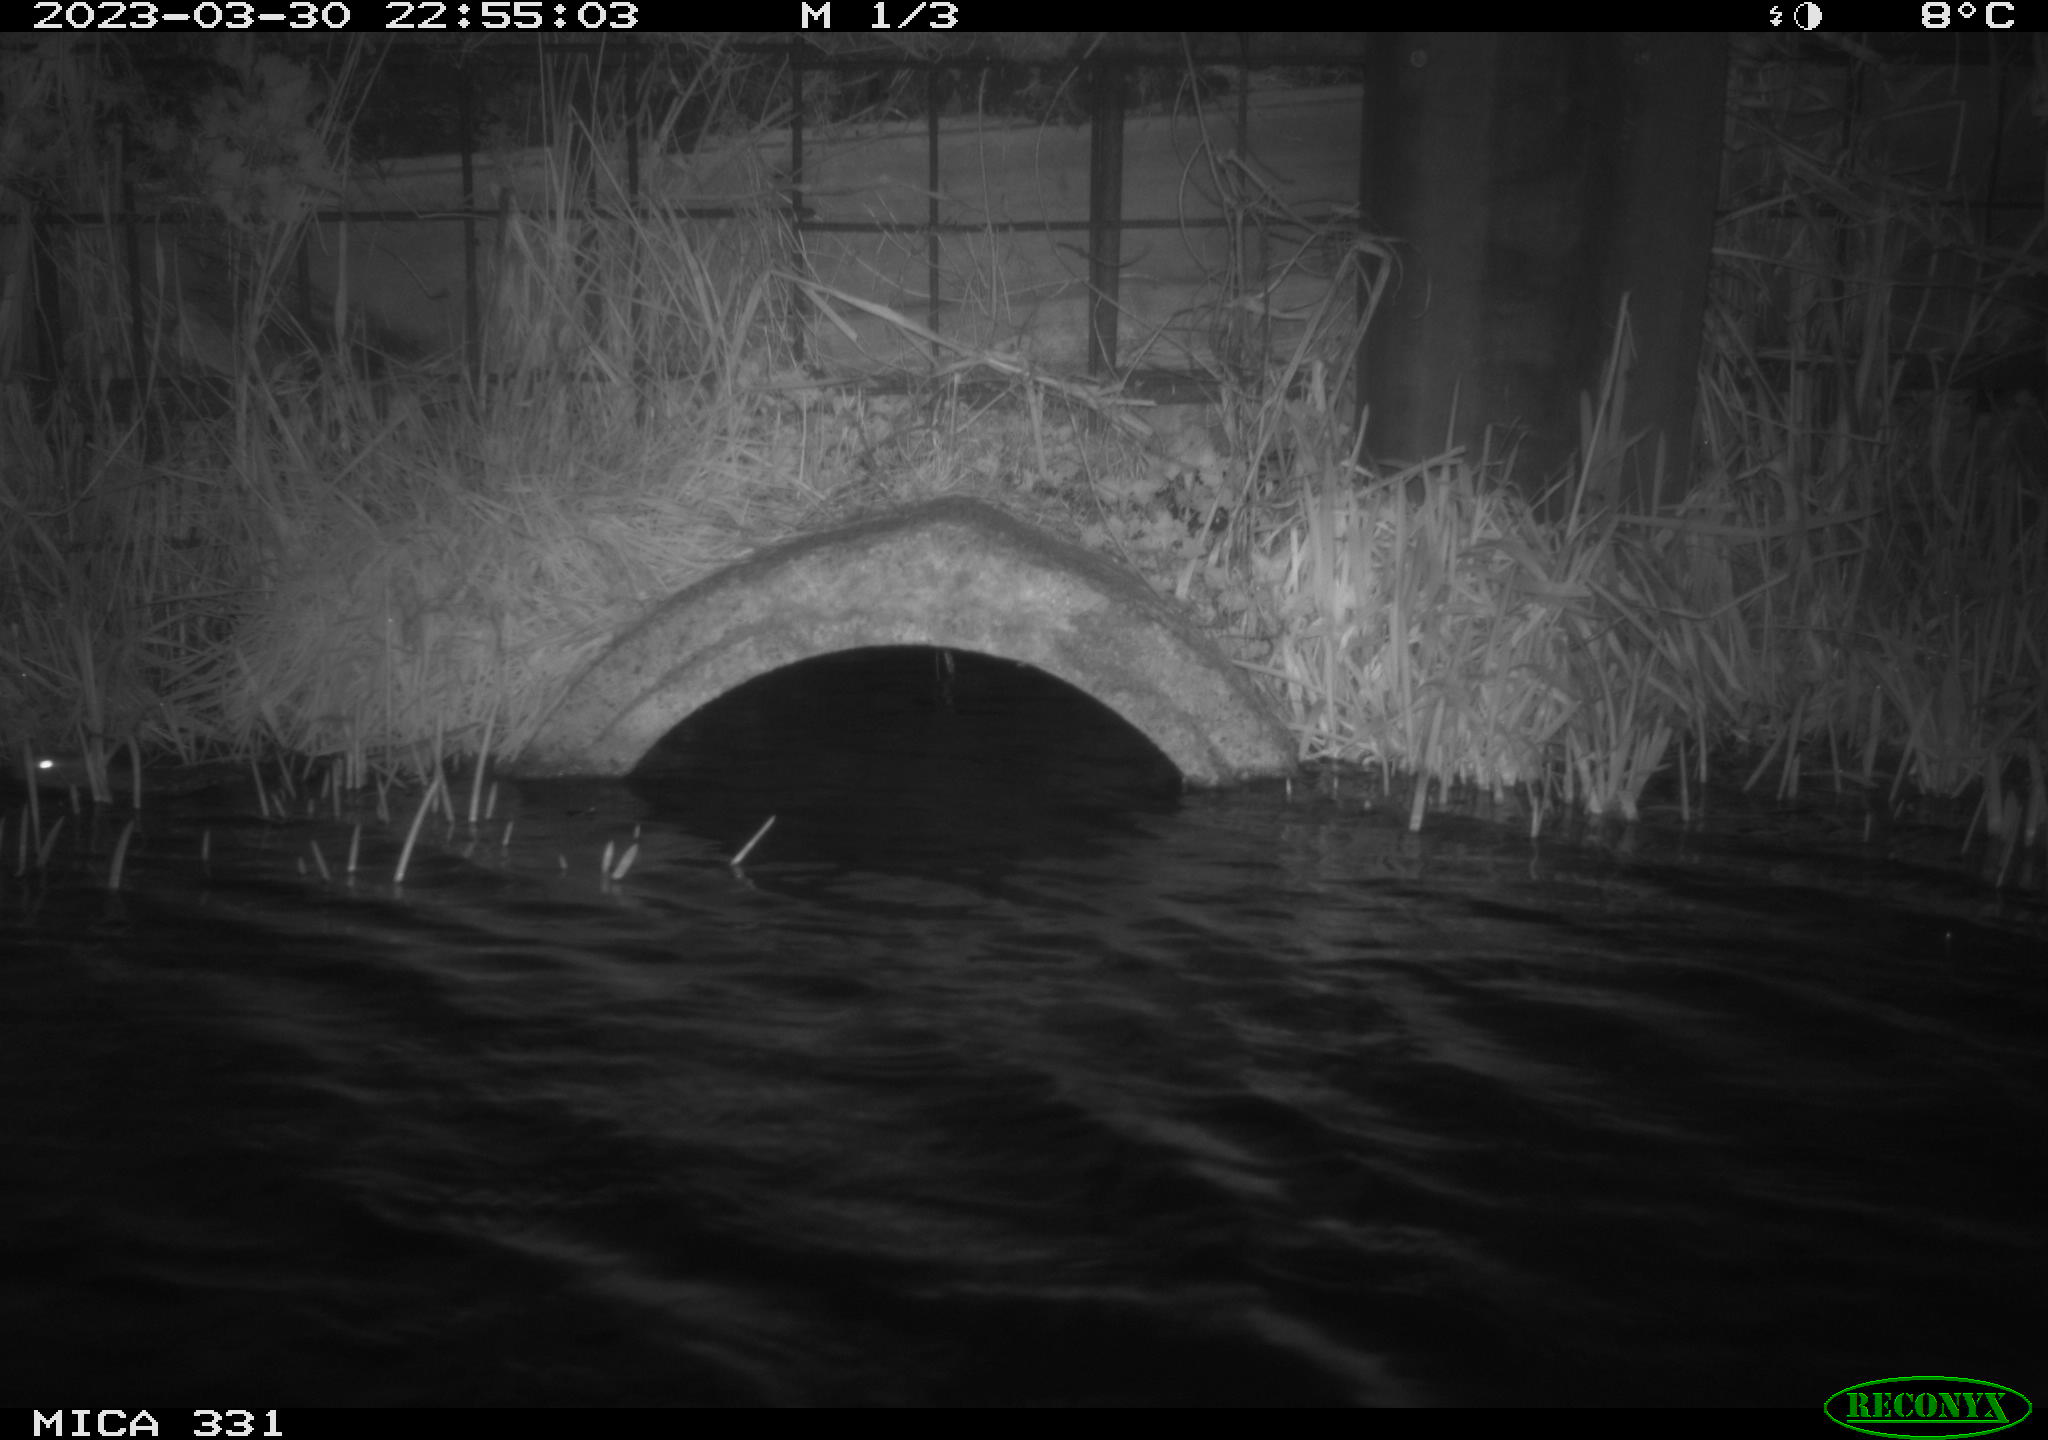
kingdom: Animalia
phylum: Chordata
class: Mammalia
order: Rodentia
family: Muridae
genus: Rattus
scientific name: Rattus norvegicus
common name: Brown rat
